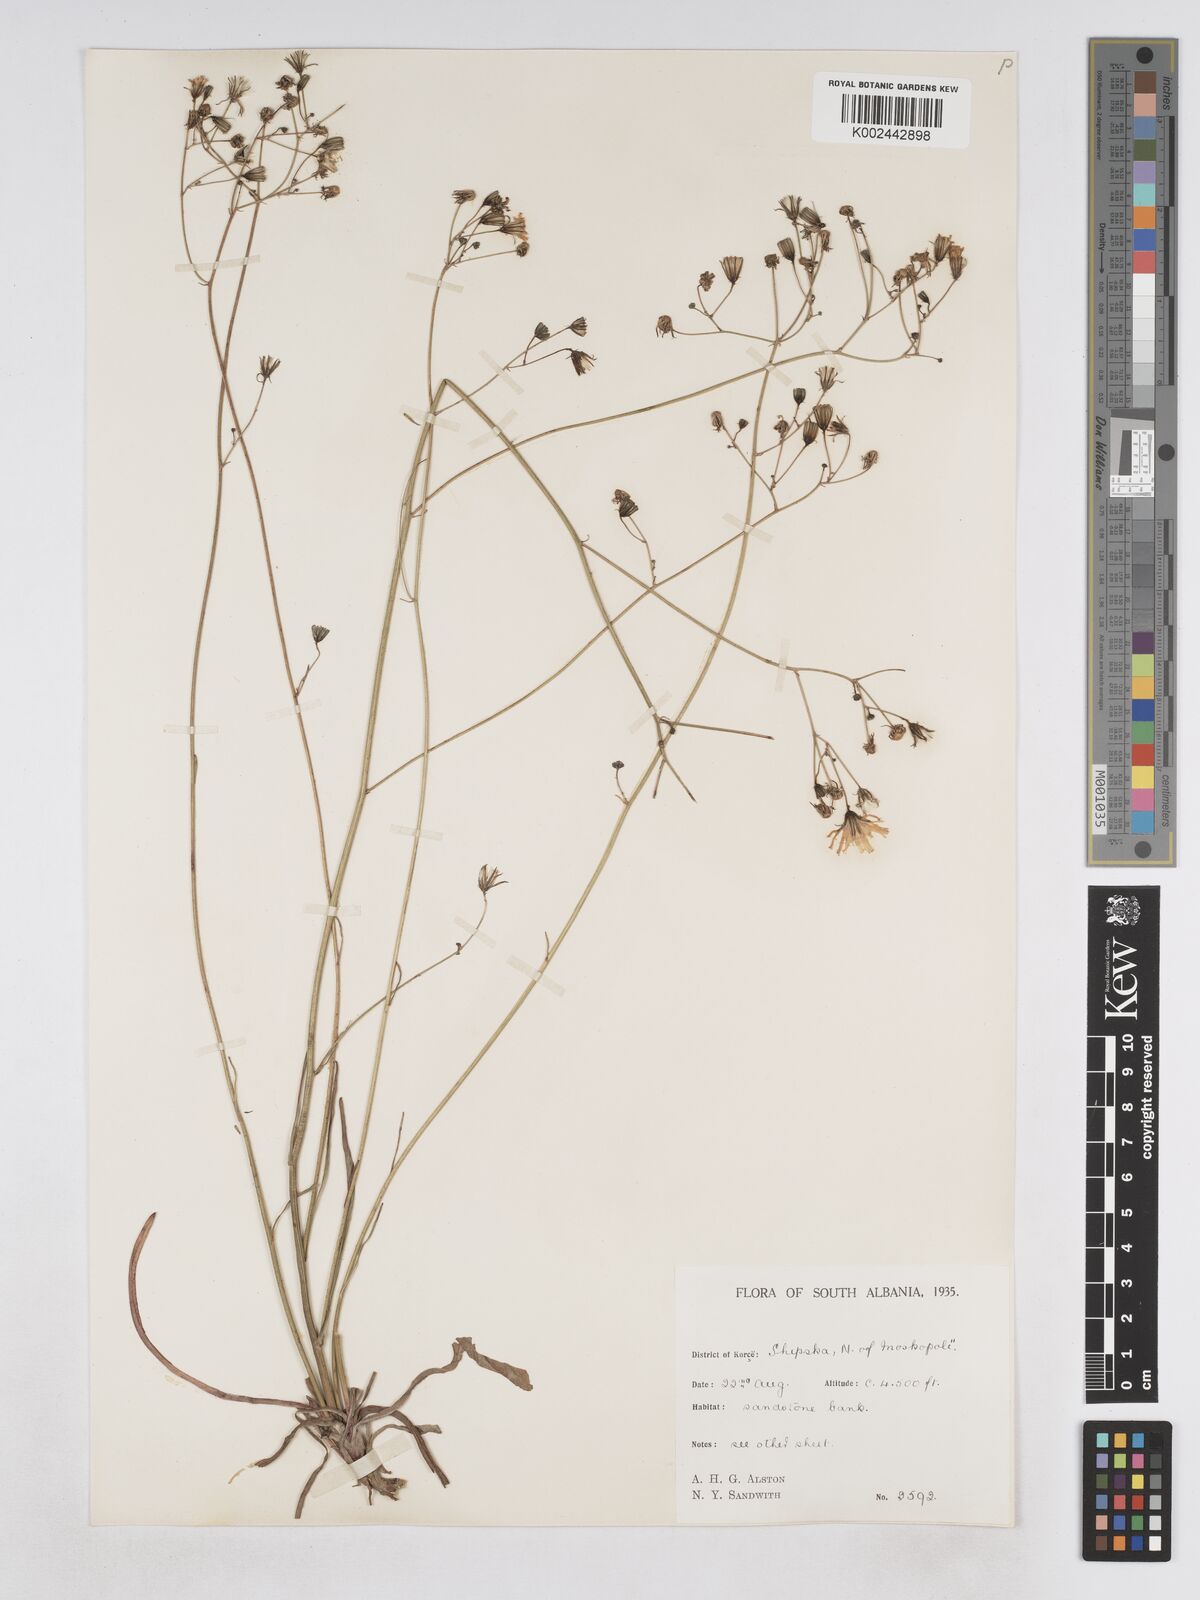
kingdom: Plantae
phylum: Tracheophyta
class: Magnoliopsida
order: Asterales
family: Asteraceae
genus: Pilosella
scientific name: Pilosella pavichii
